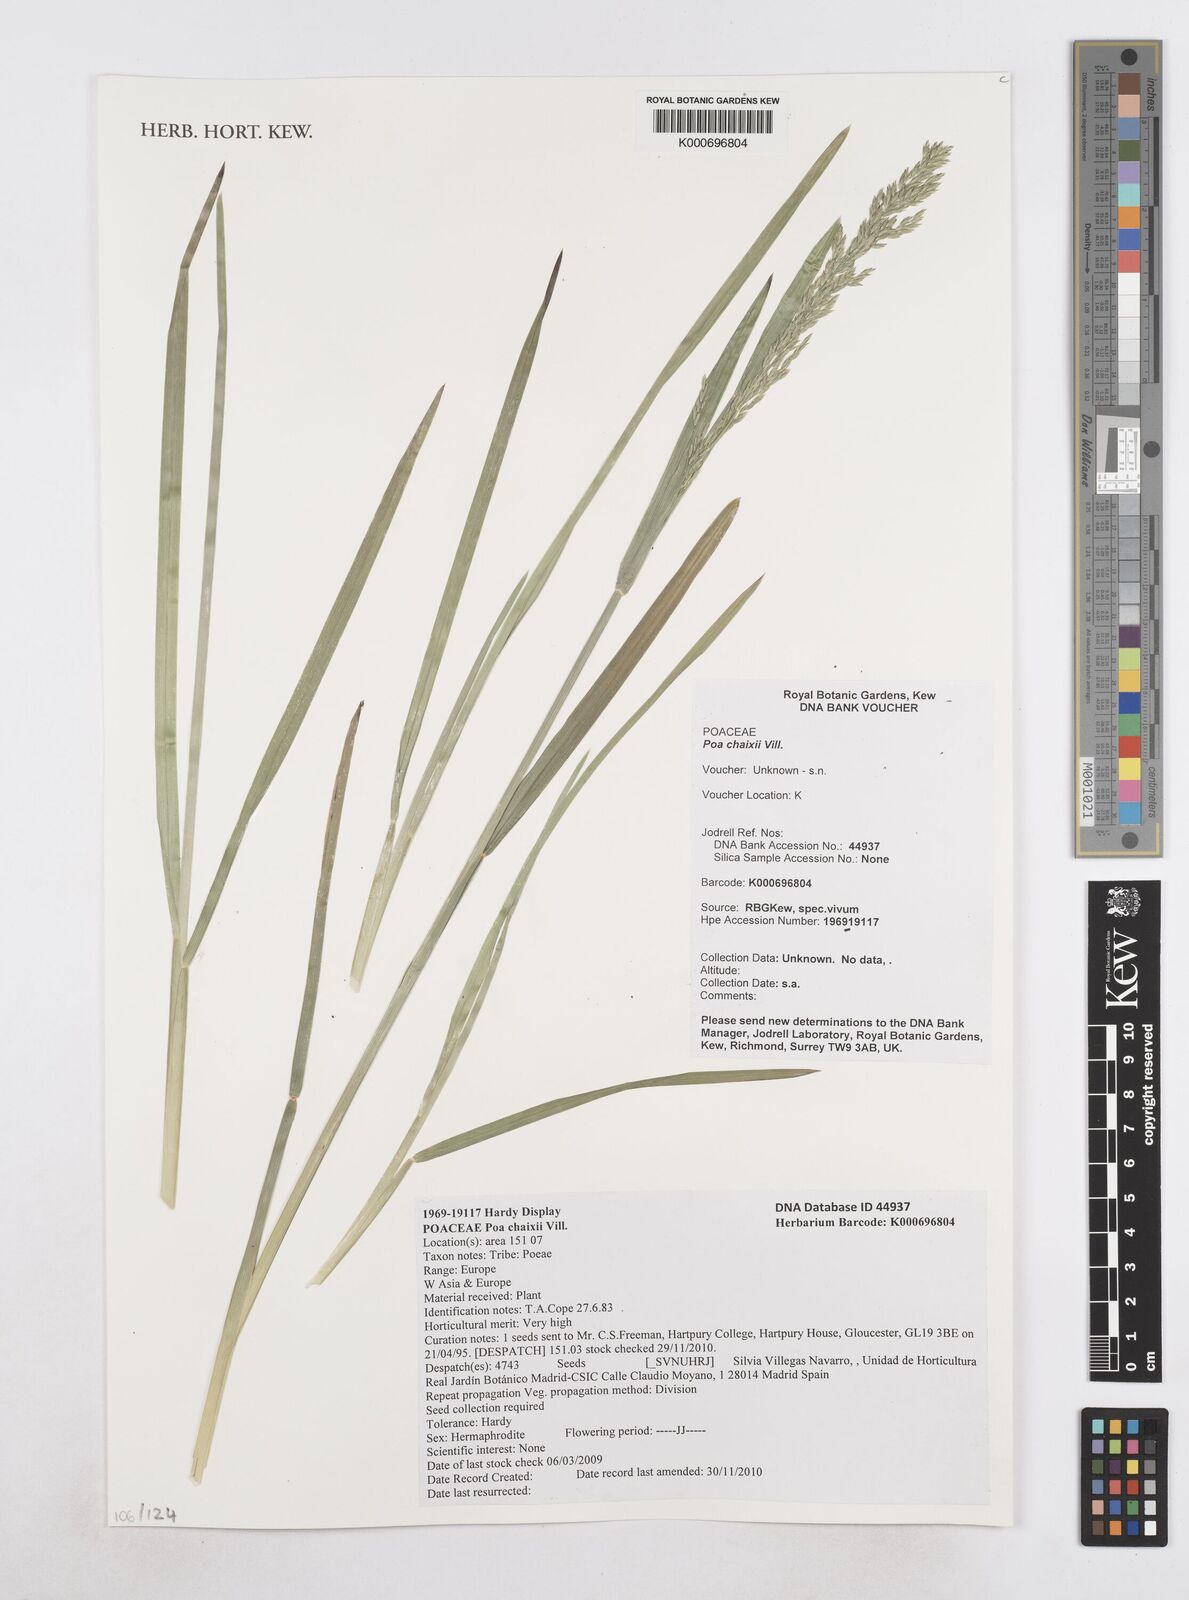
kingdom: Plantae
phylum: Tracheophyta
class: Liliopsida
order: Poales
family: Poaceae
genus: Poa
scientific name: Poa chaixii
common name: Broad-leaved meadow-grass
